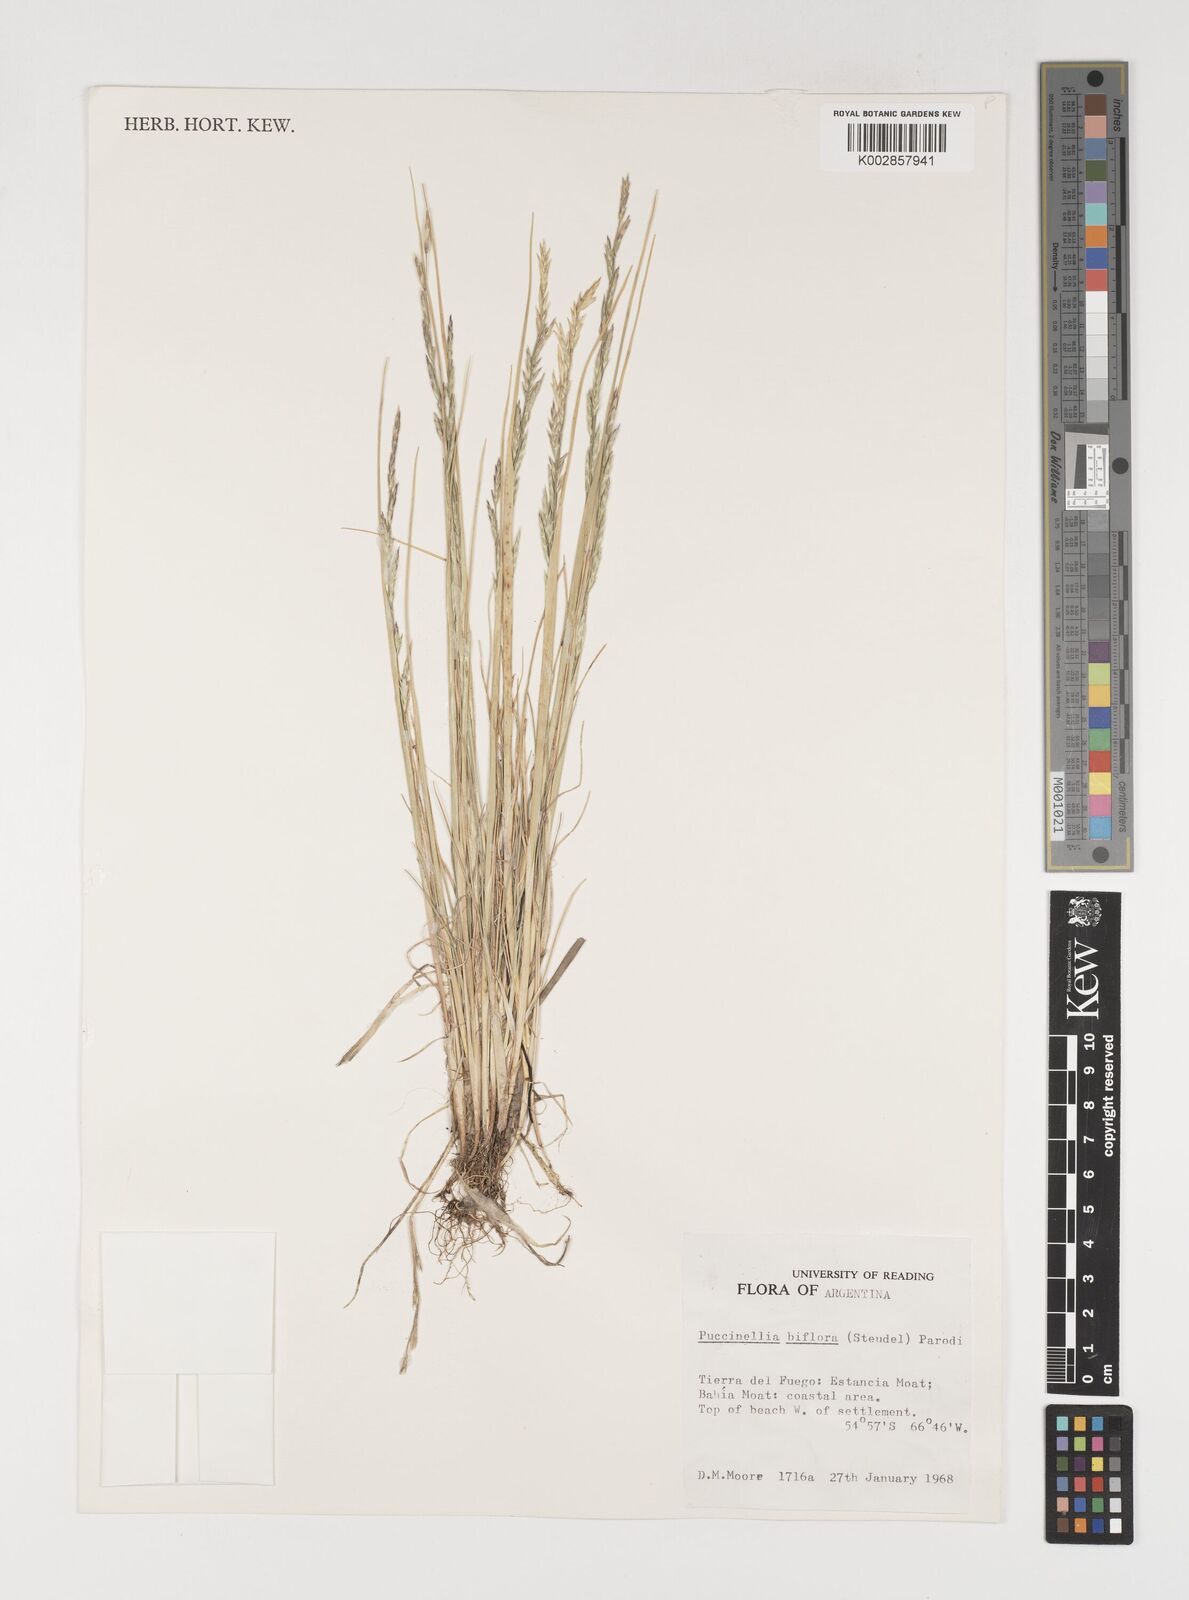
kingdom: Plantae
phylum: Tracheophyta
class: Liliopsida
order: Poales
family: Poaceae
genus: Puccinellia
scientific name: Puccinellia biflora
